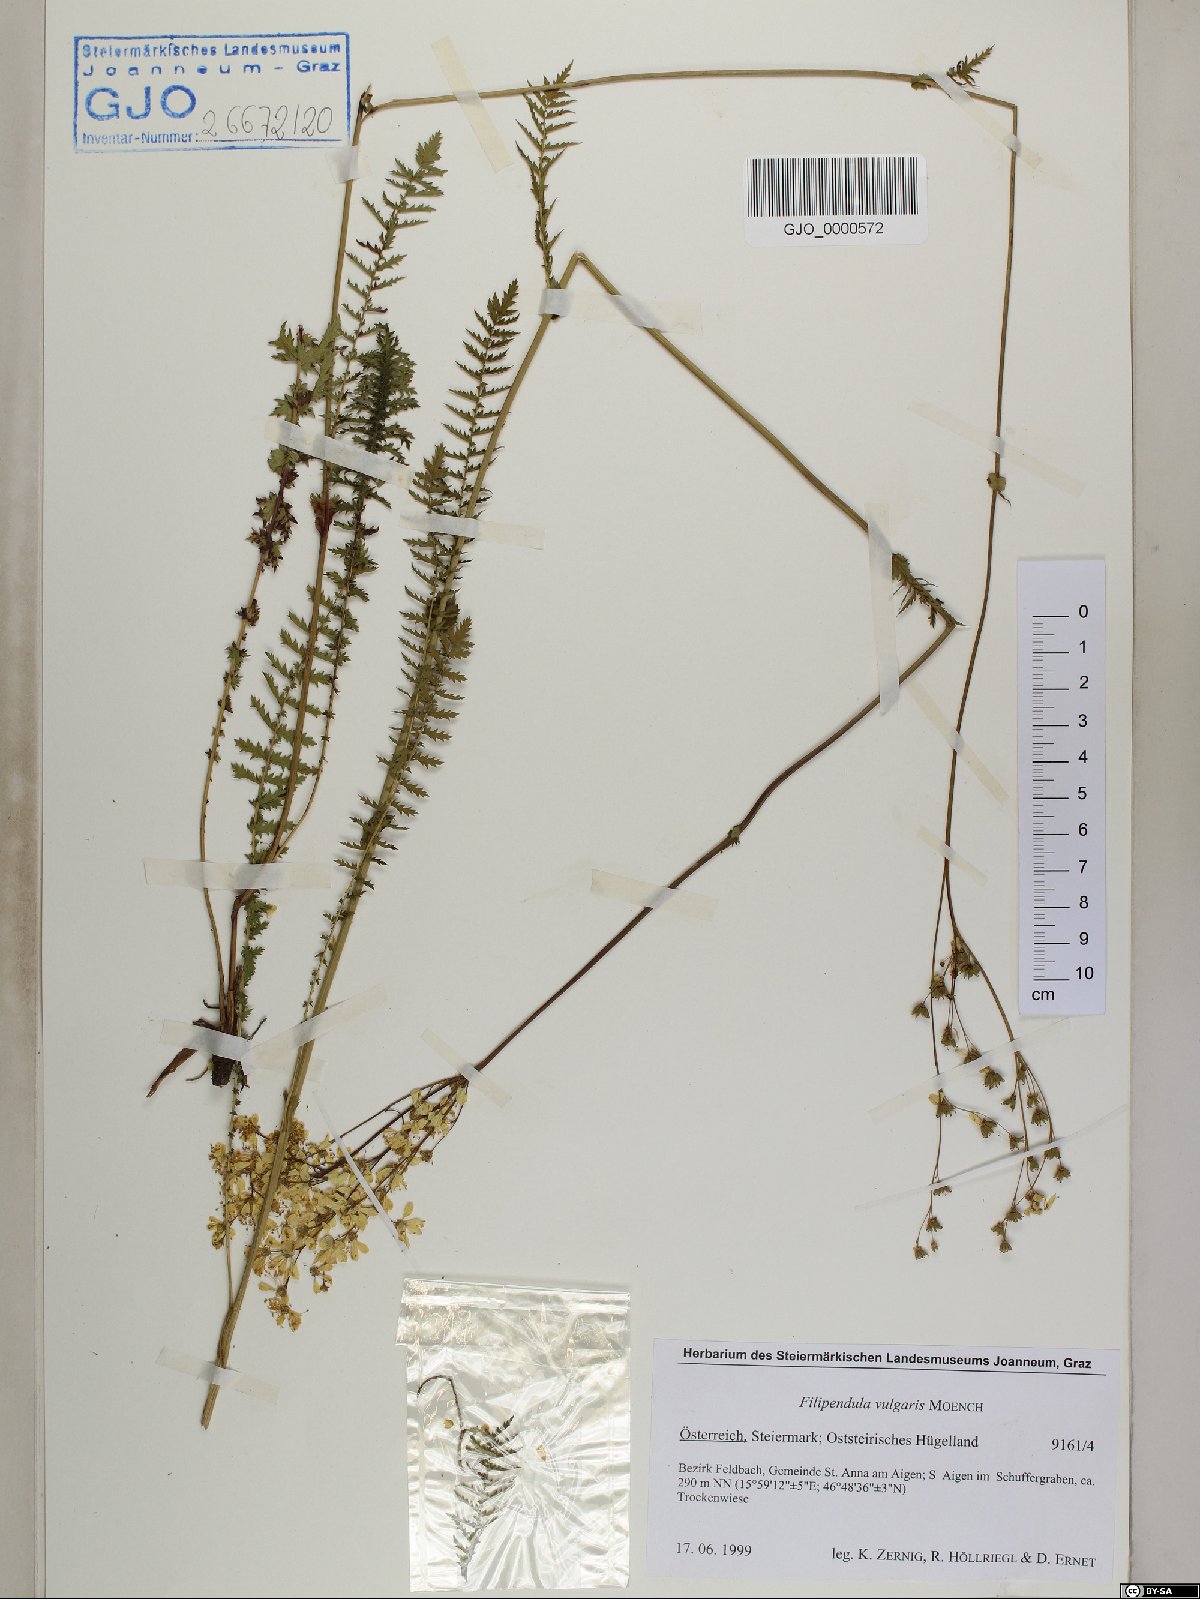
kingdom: Plantae
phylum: Tracheophyta
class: Magnoliopsida
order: Rosales
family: Rosaceae
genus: Filipendula
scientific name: Filipendula vulgaris
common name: Dropwort
